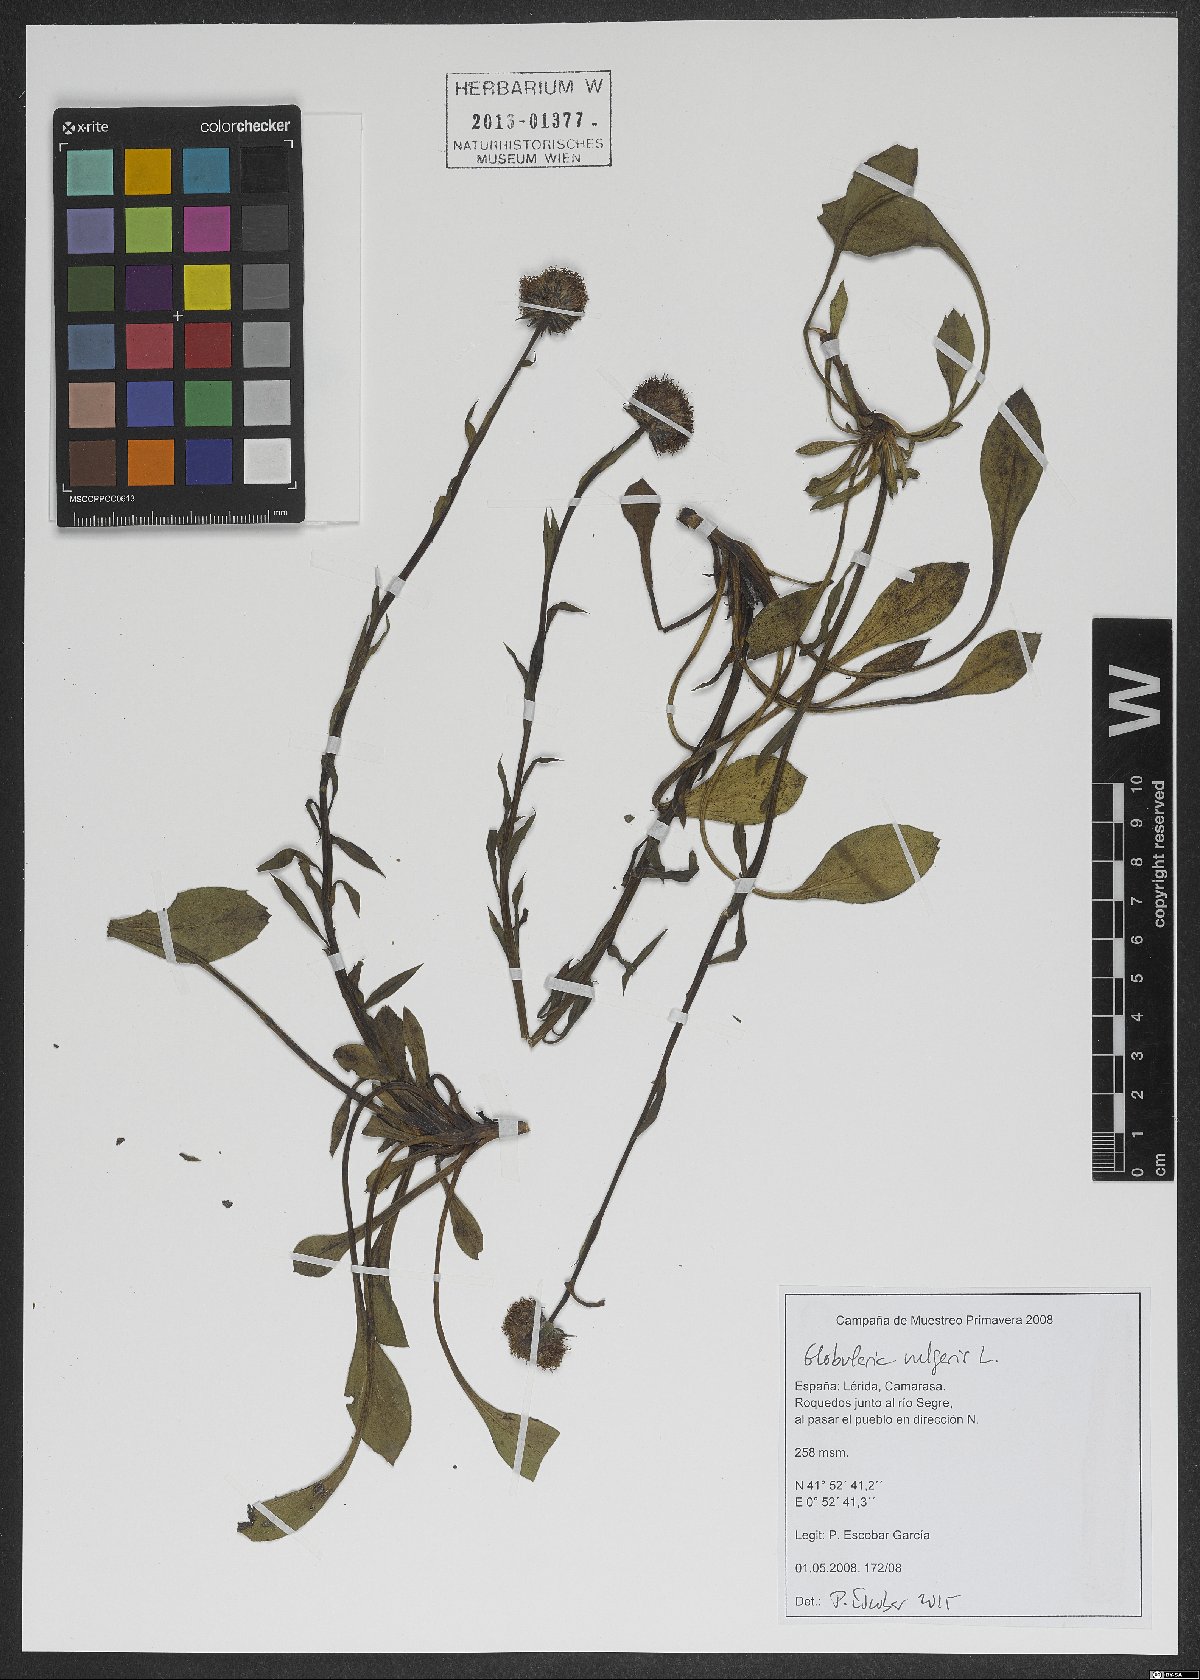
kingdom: Plantae
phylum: Tracheophyta
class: Magnoliopsida
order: Lamiales
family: Plantaginaceae
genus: Globularia
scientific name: Globularia vulgaris
